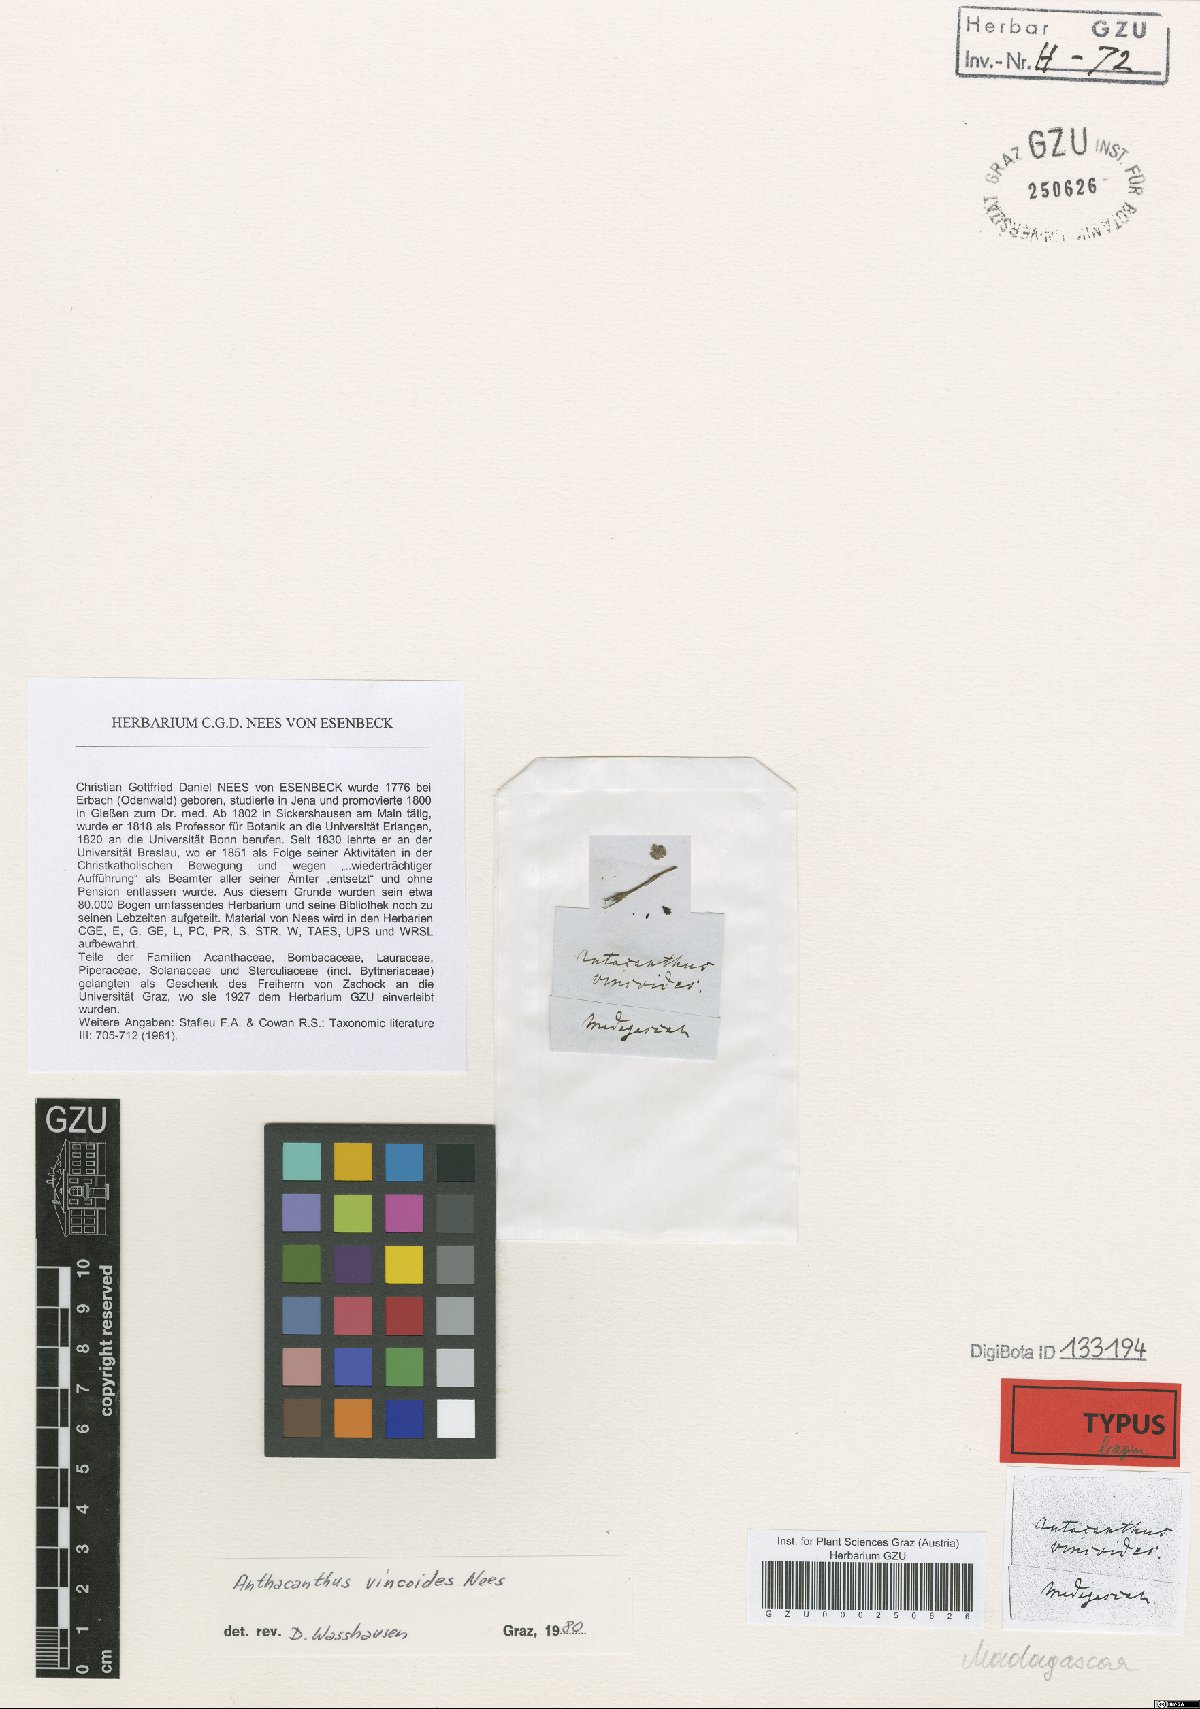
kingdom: Plantae
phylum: Tracheophyta
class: Magnoliopsida
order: Lamiales
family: Acanthaceae
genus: Oplonia
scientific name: Oplonia vincoides
